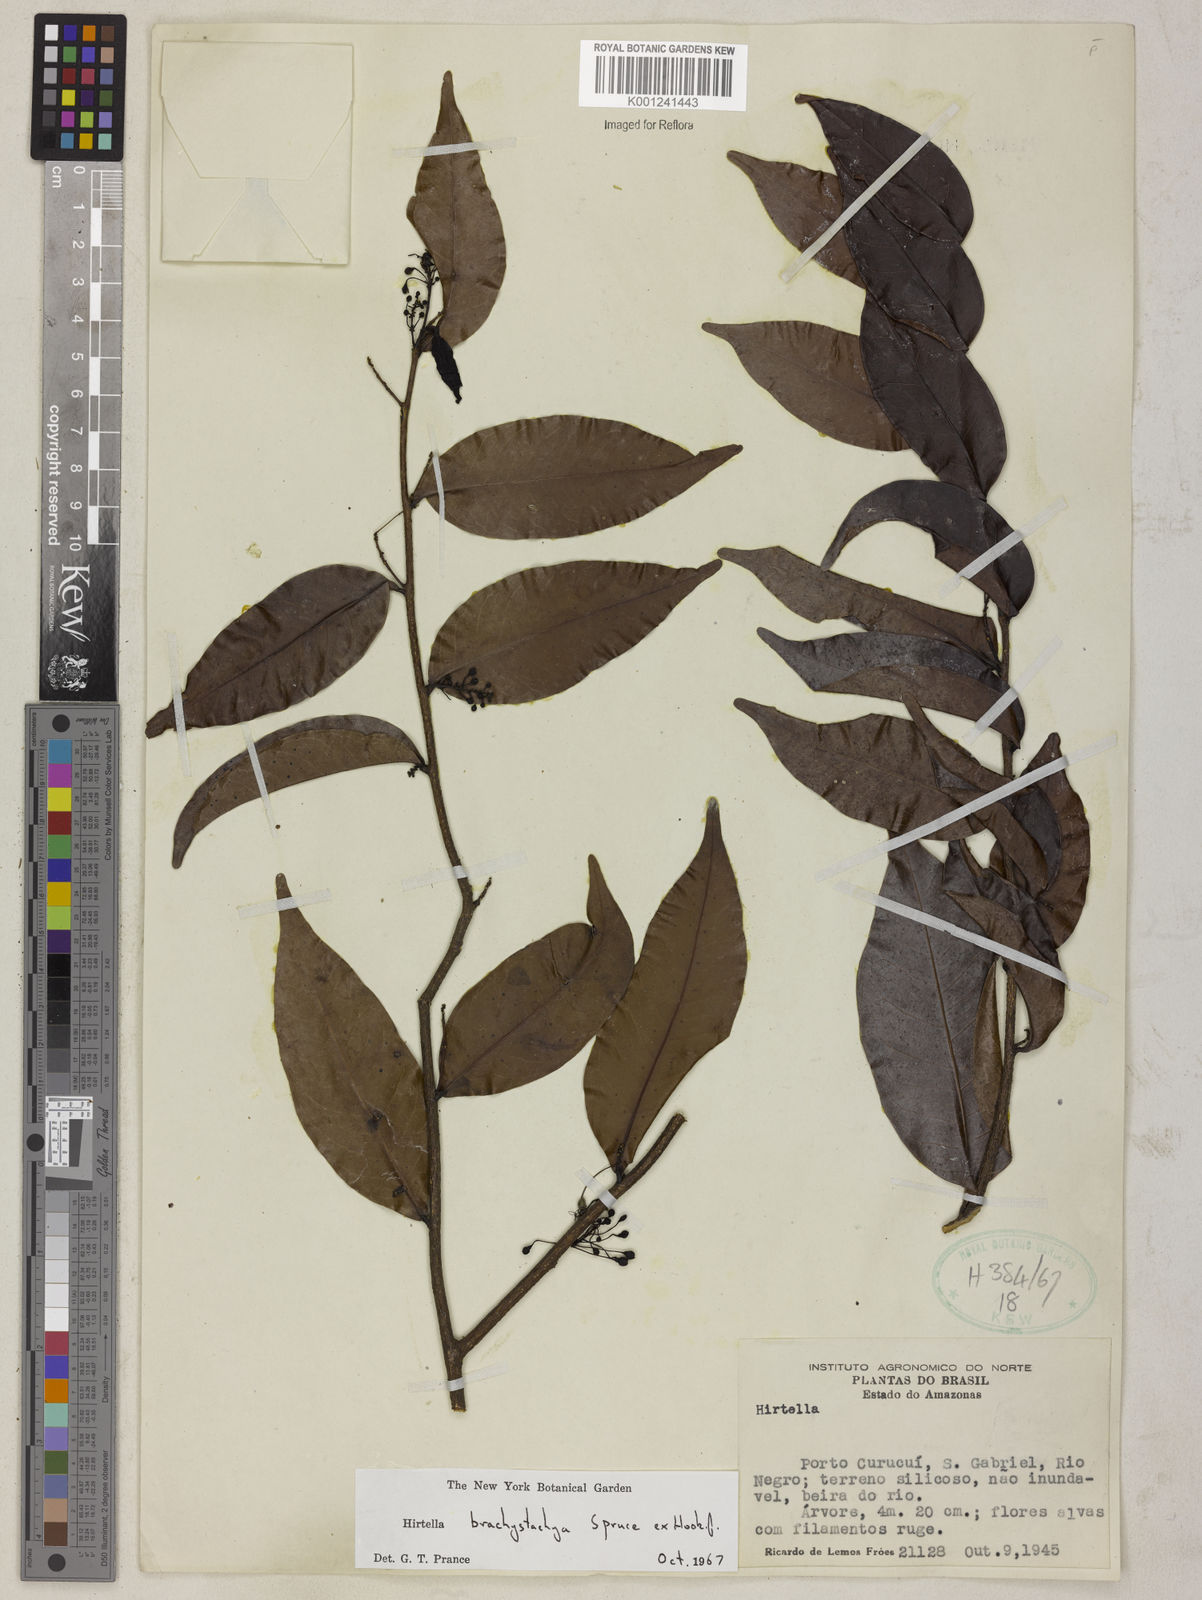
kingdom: Plantae
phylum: Tracheophyta
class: Magnoliopsida
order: Malpighiales
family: Chrysobalanaceae
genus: Hirtella
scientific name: Hirtella brachystachya
